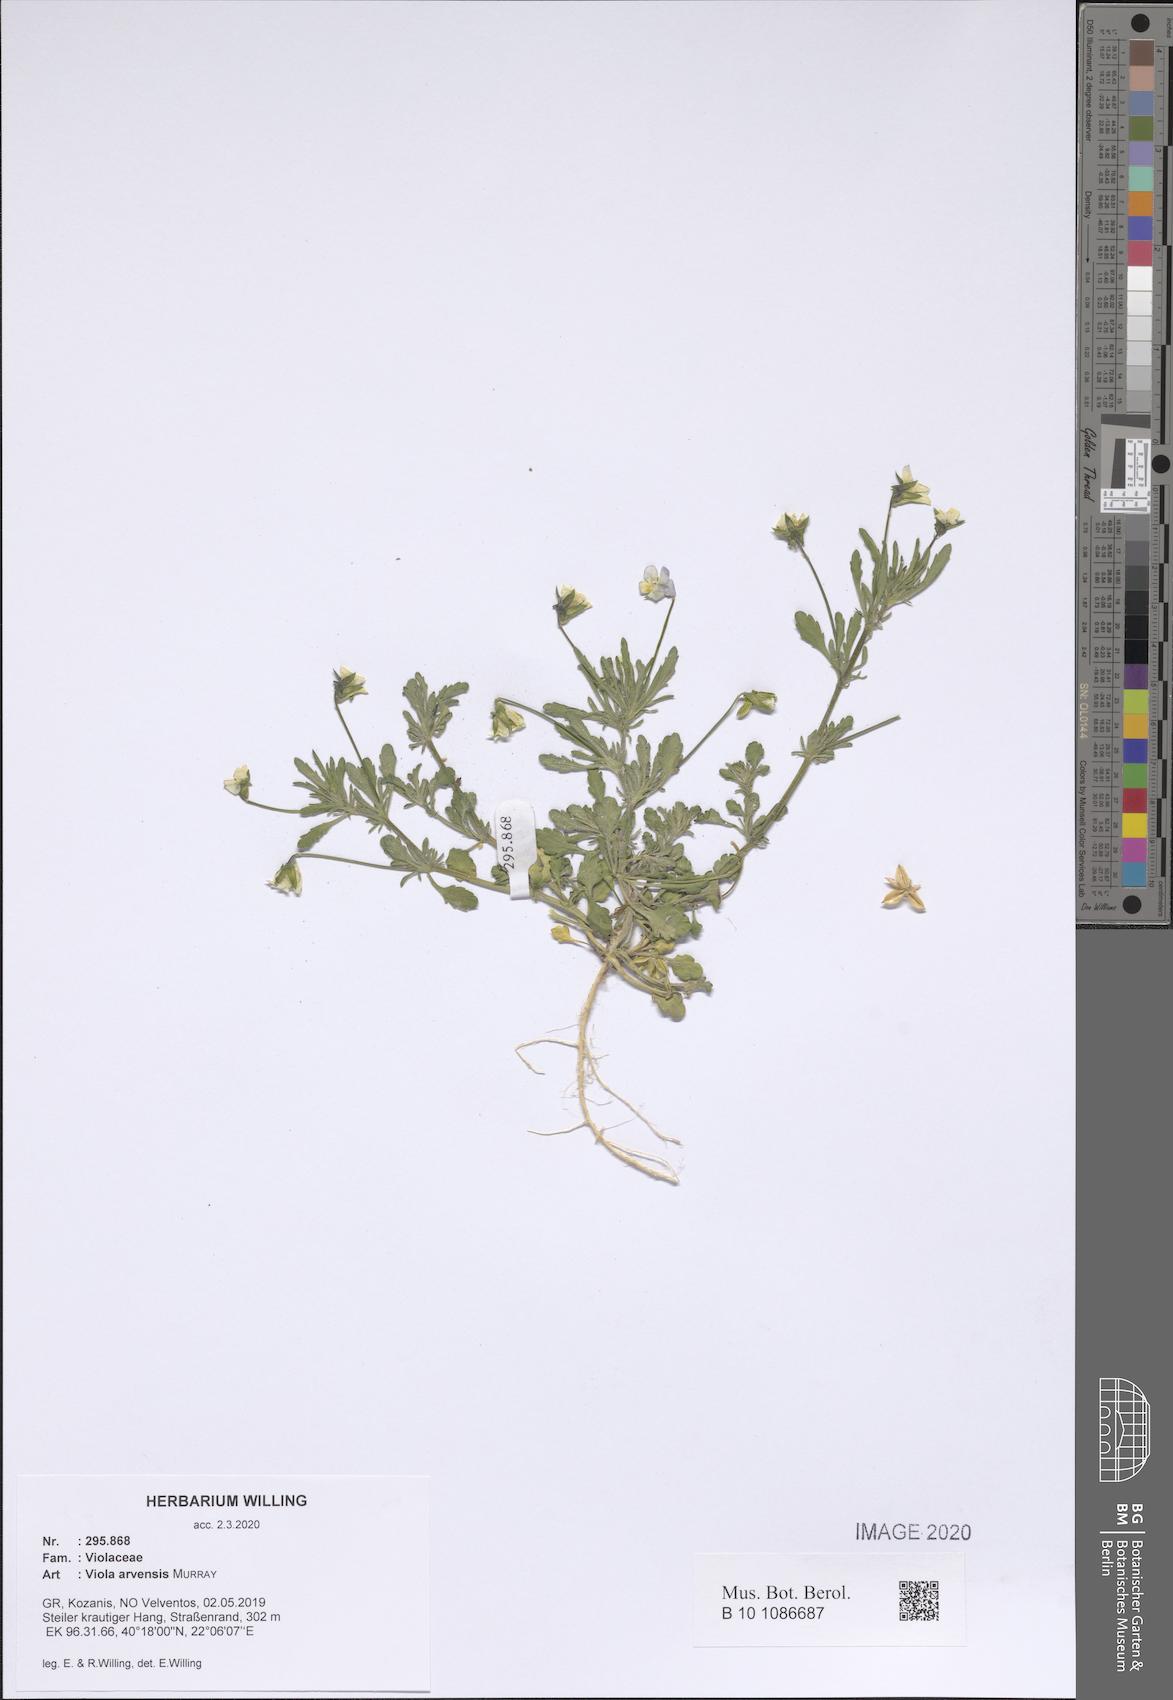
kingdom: Plantae
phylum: Tracheophyta
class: Magnoliopsida
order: Malpighiales
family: Violaceae
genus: Viola
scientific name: Viola arvensis
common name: Field pansy
